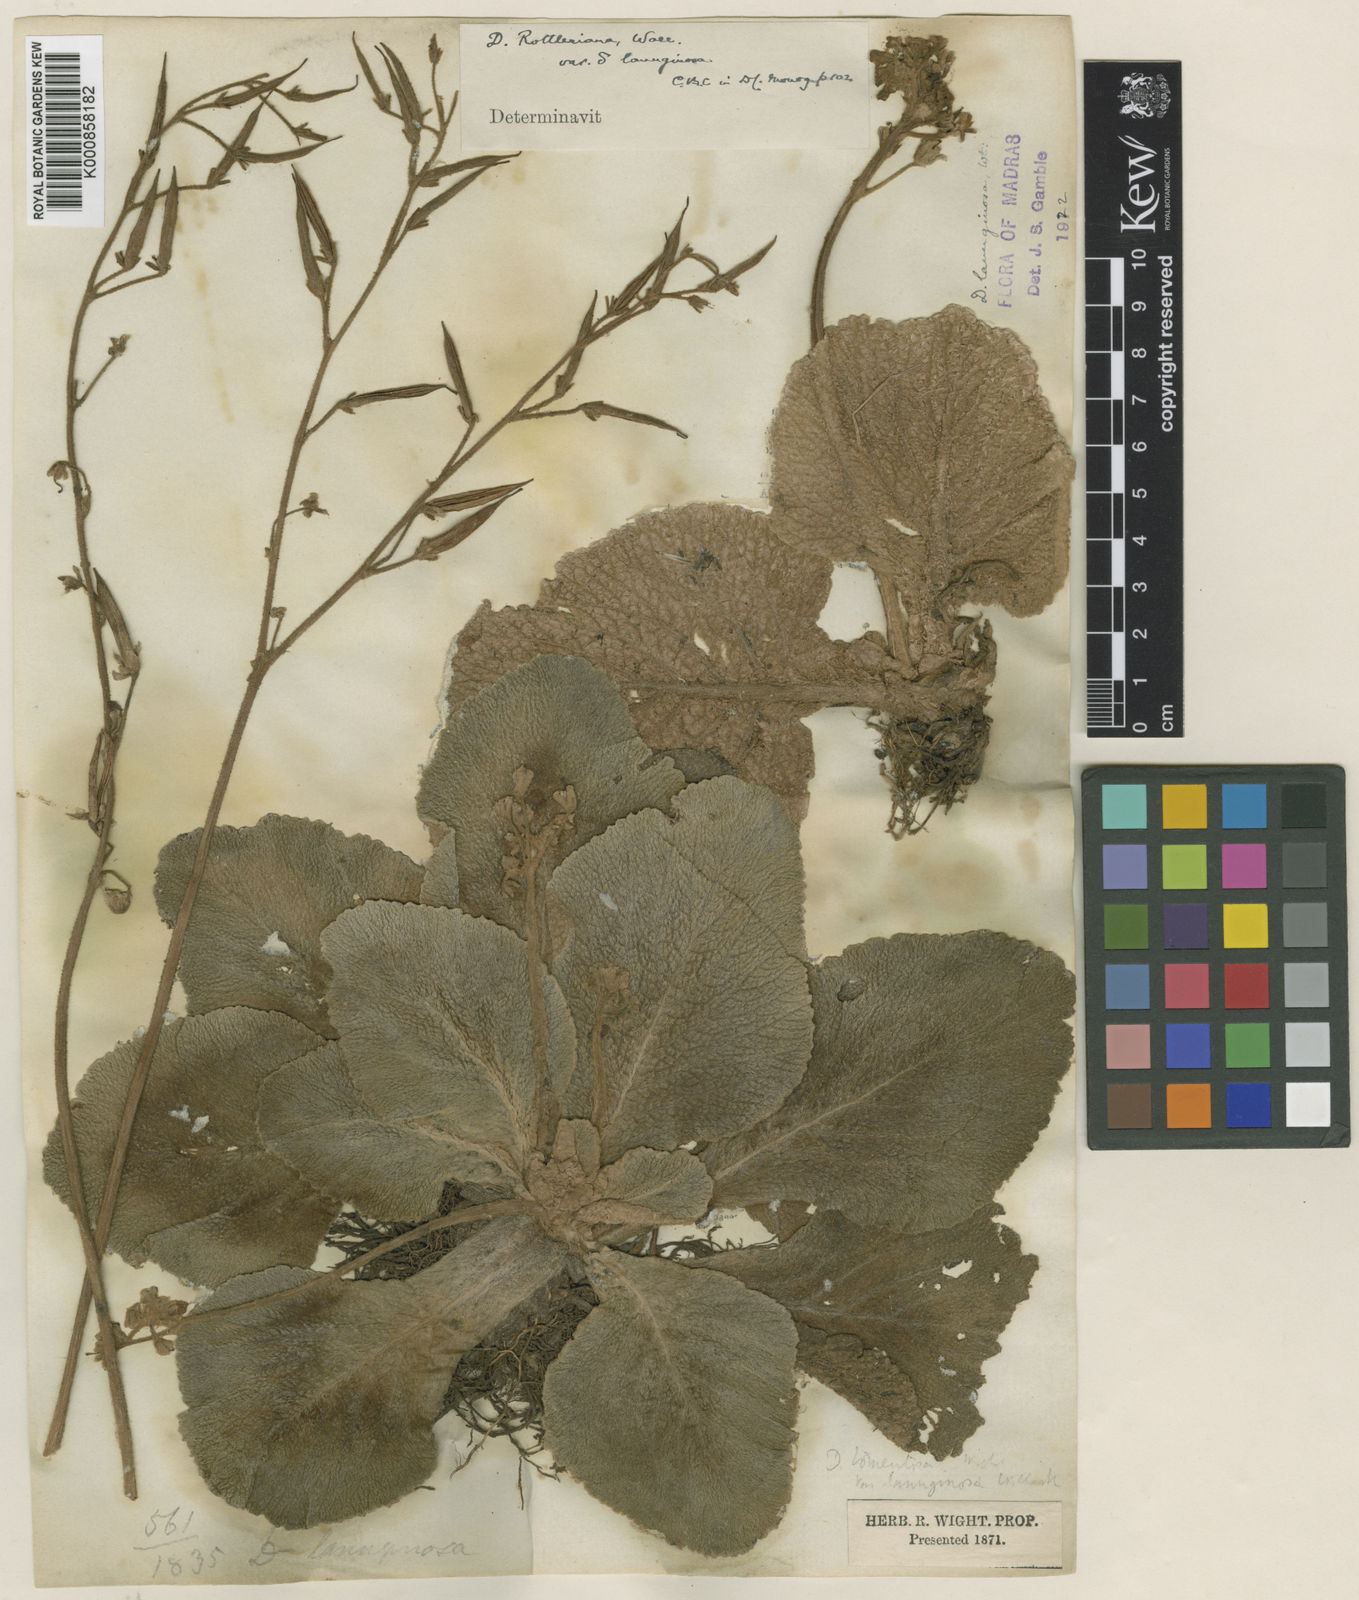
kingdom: Plantae
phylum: Tracheophyta
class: Magnoliopsida
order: Lamiales
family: Gesneriaceae
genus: Henckelia
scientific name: Henckelia gambleana
